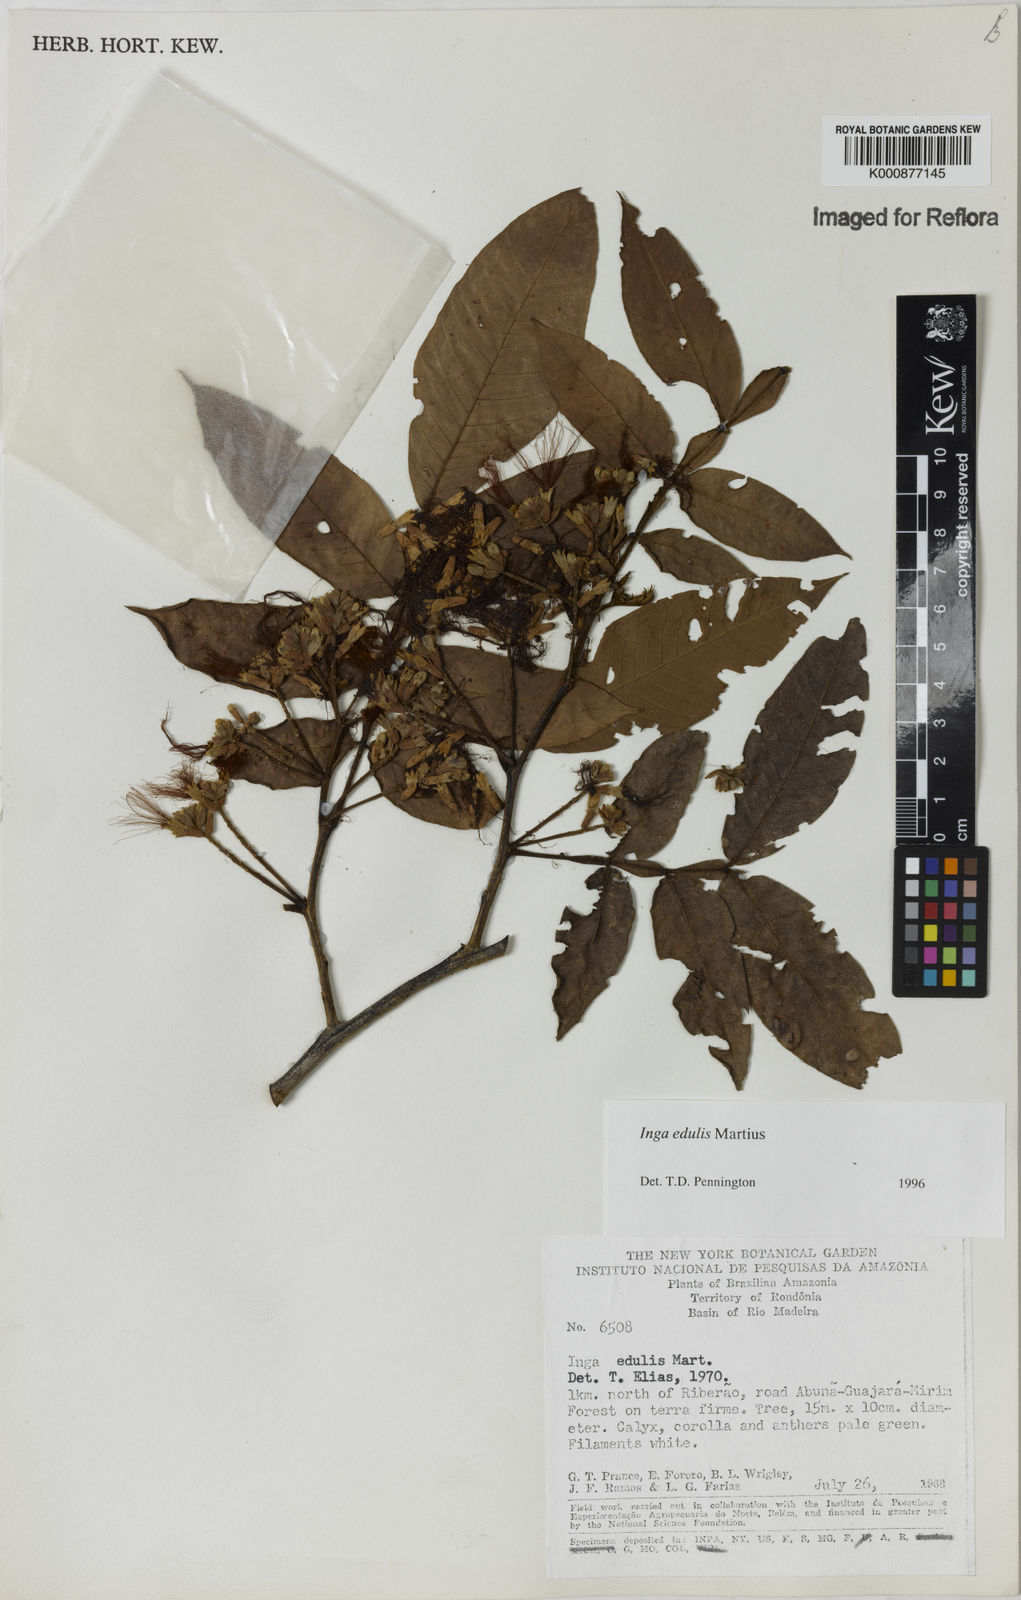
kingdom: Plantae
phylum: Tracheophyta
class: Magnoliopsida
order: Fabales
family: Fabaceae
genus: Inga
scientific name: Inga edulis
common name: Ice cream bean
